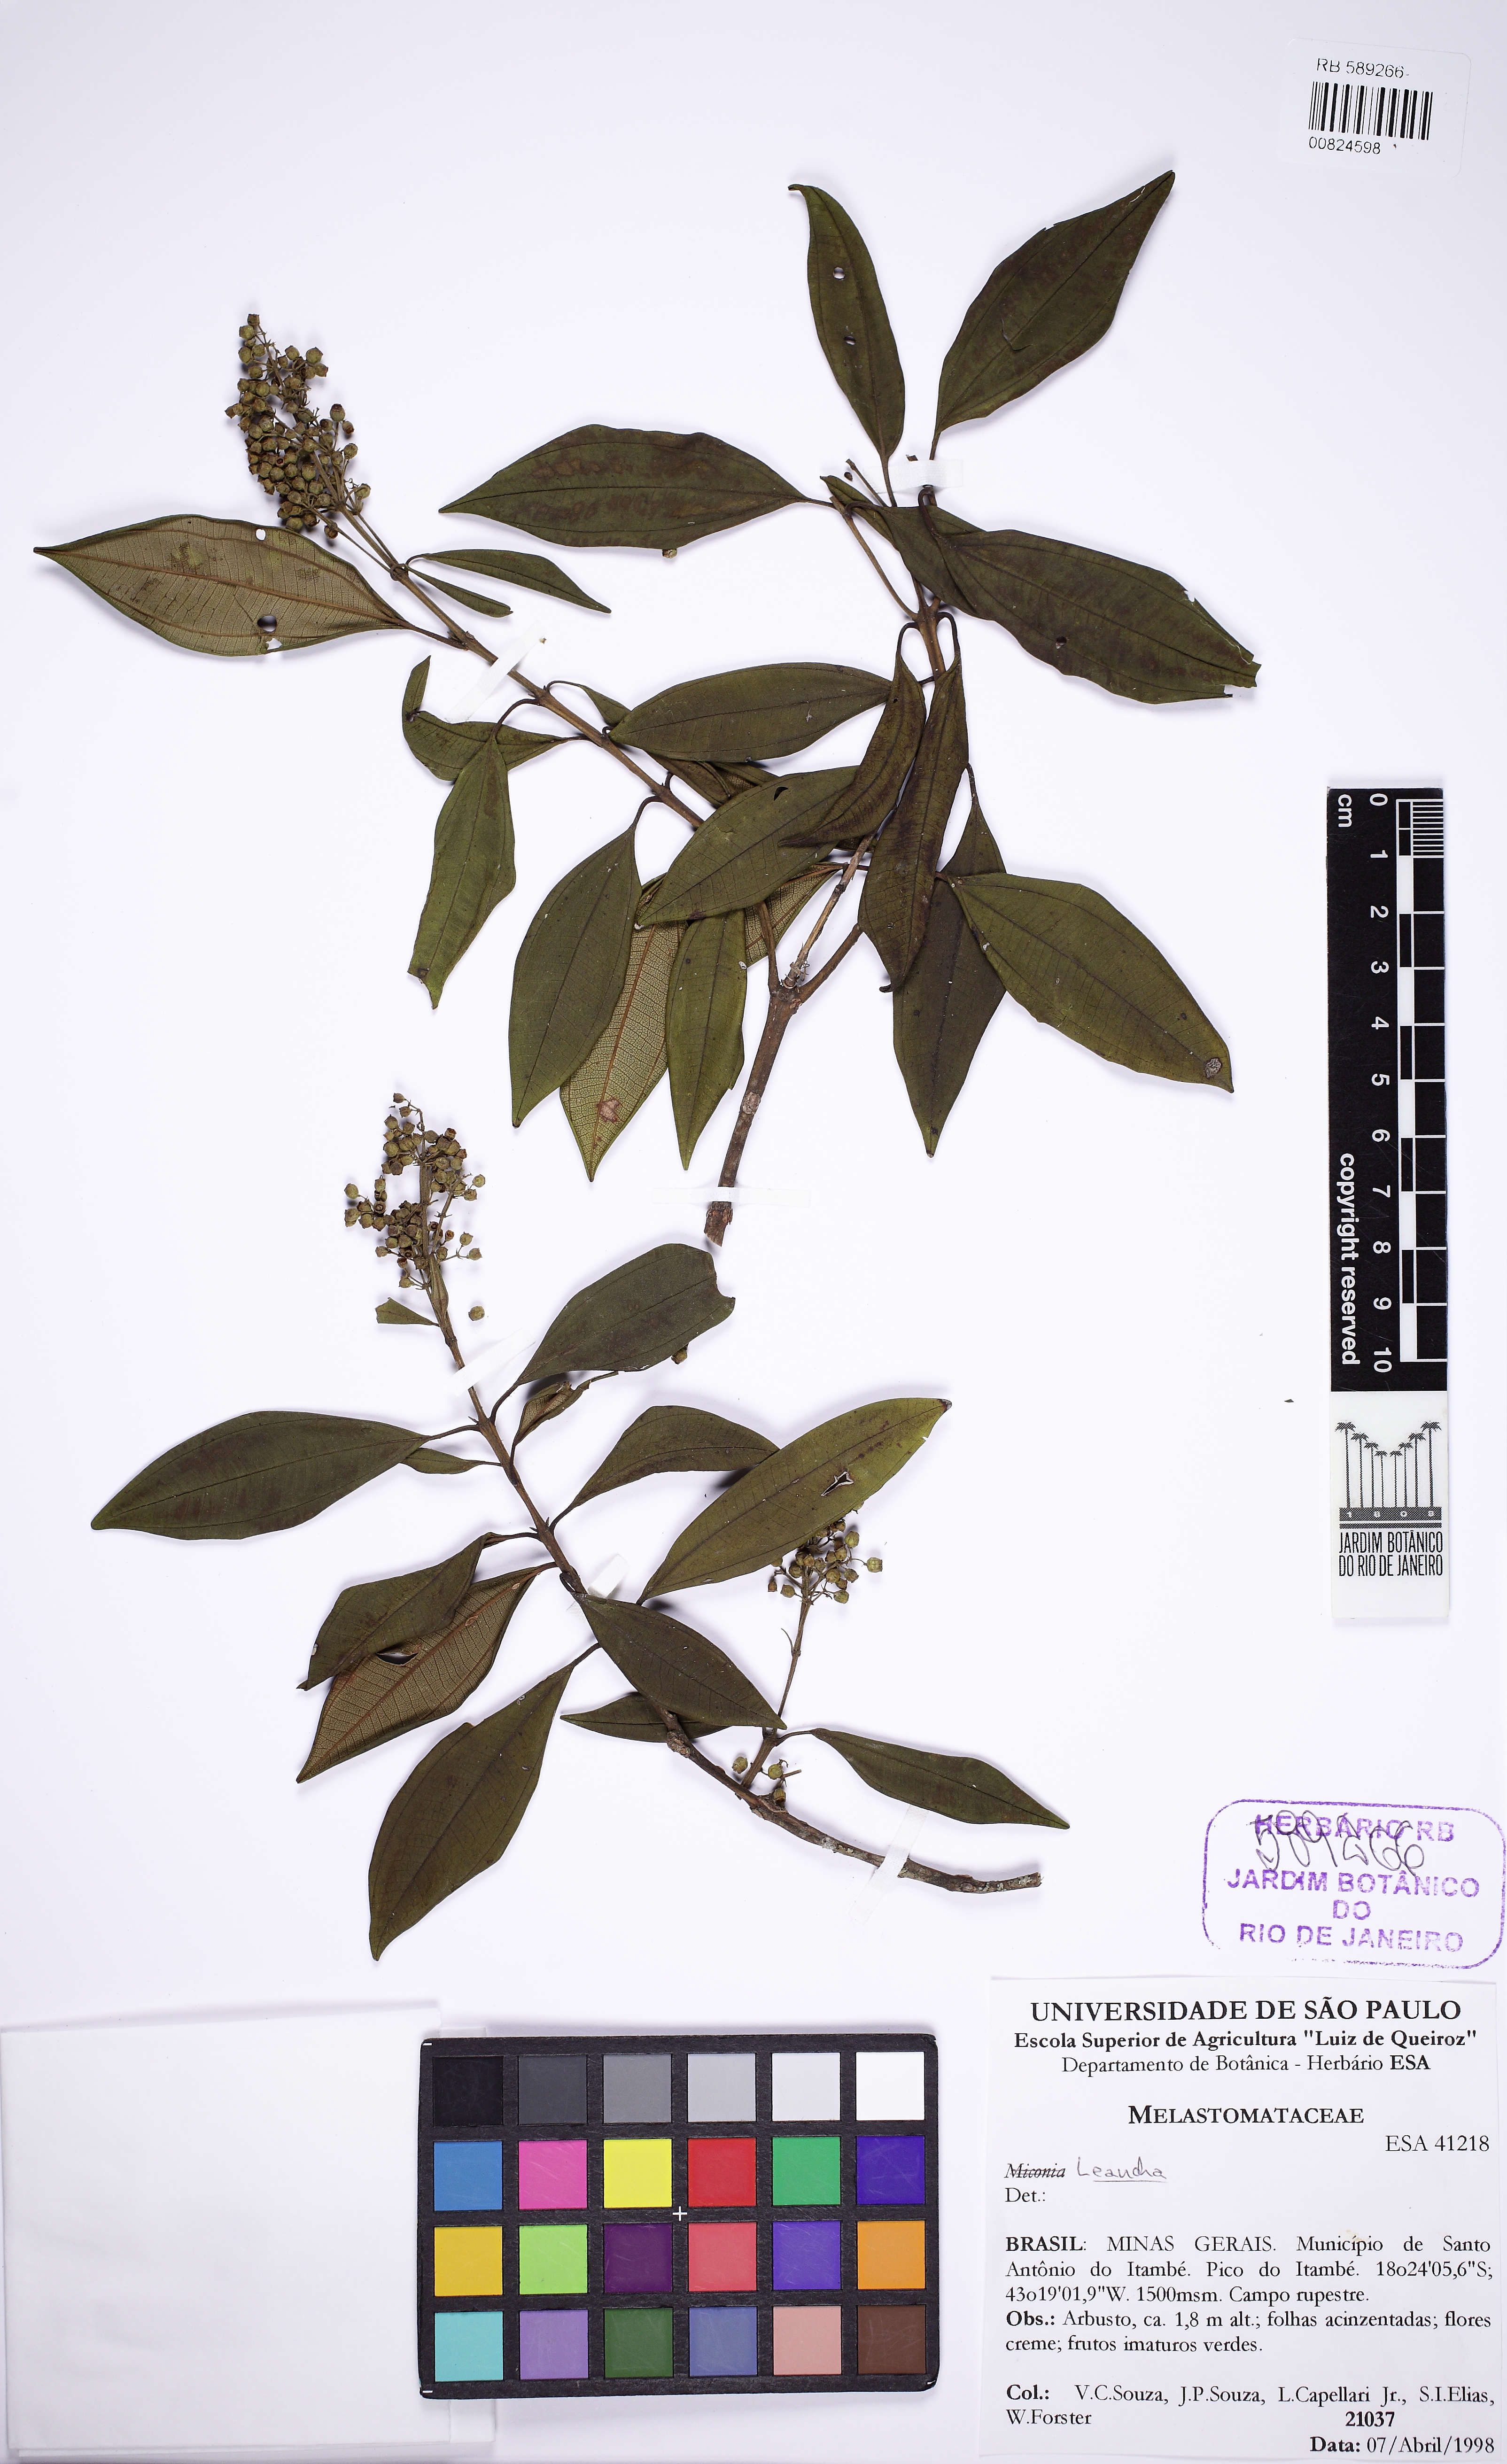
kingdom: Plantae
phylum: Tracheophyta
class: Magnoliopsida
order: Myrtales
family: Melastomataceae
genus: Miconia
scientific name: Miconia quinquedentata
